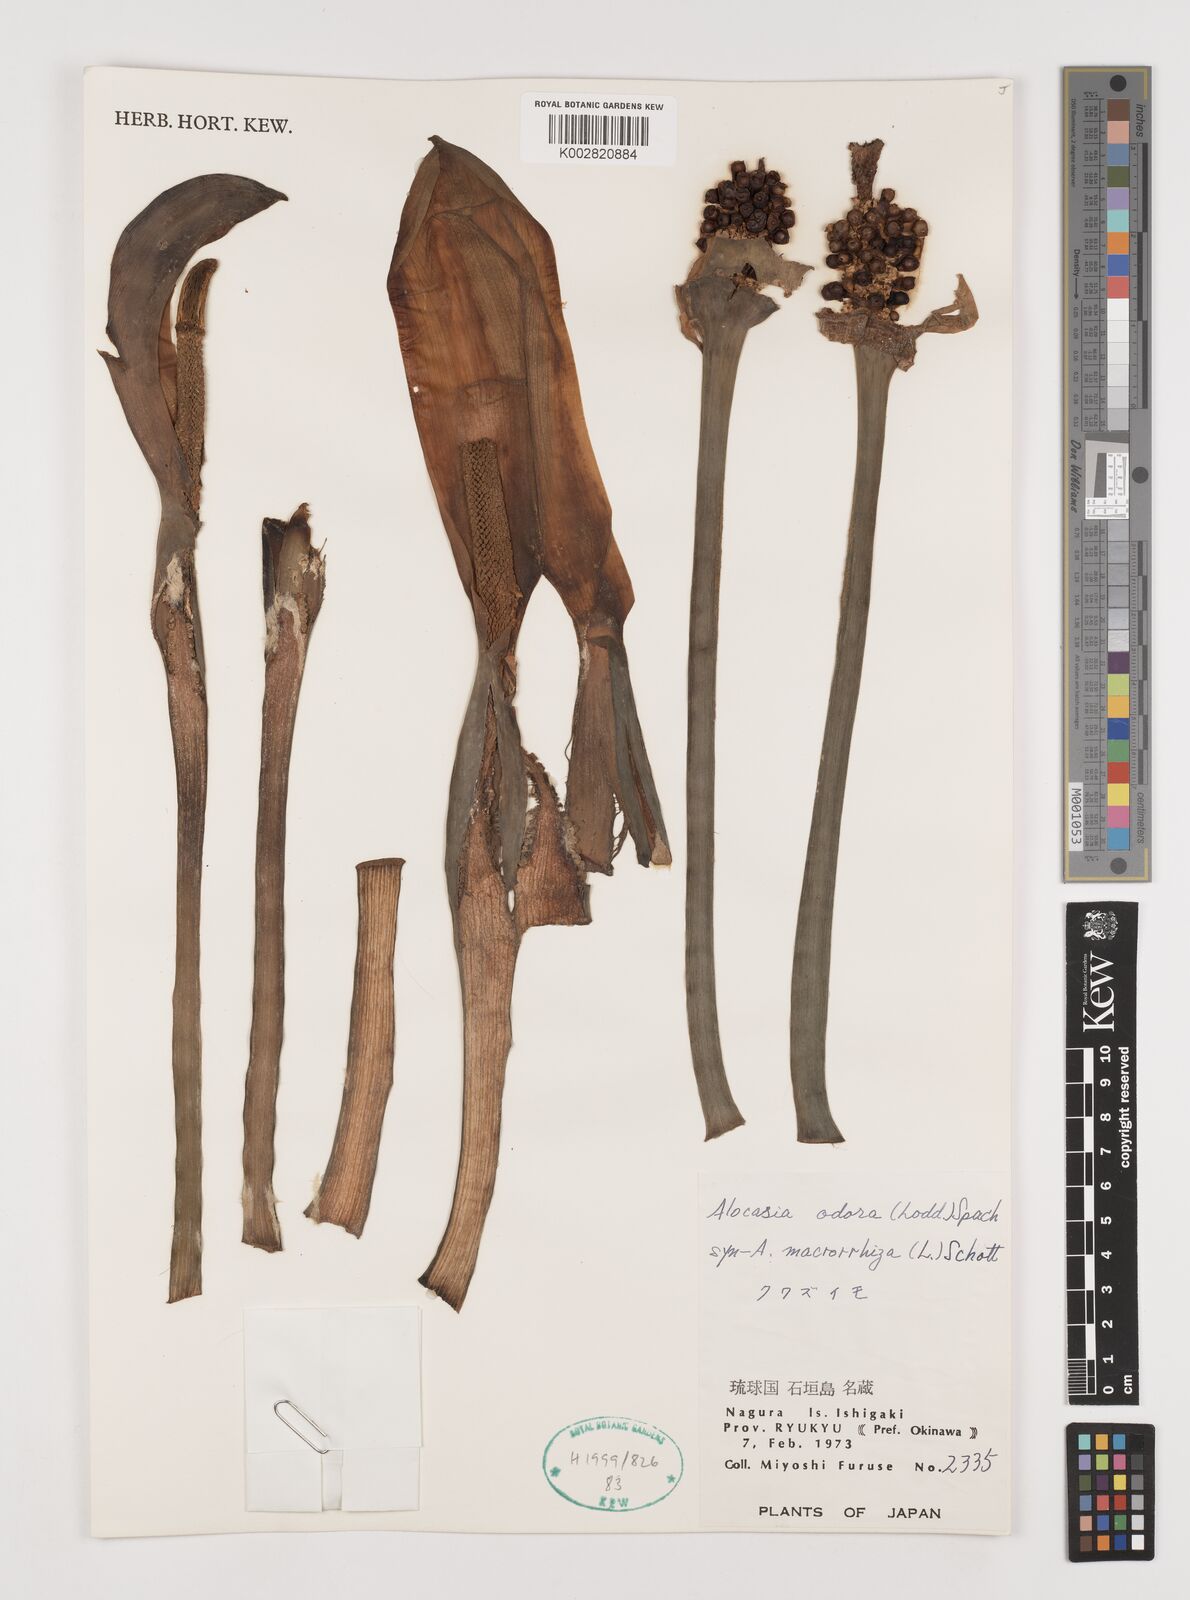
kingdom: Plantae
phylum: Tracheophyta
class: Liliopsida
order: Alismatales
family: Araceae
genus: Alocasia
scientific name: Alocasia
